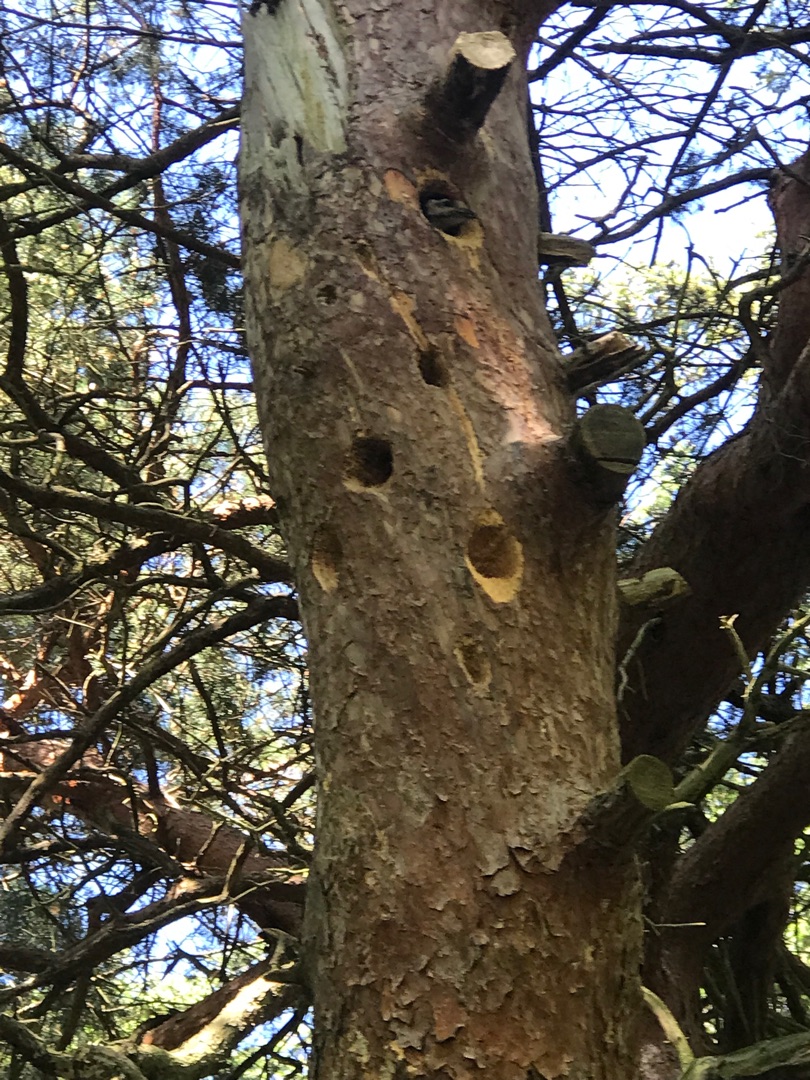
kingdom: Animalia
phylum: Chordata
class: Aves
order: Piciformes
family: Picidae
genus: Dendrocopos
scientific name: Dendrocopos major
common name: Stor flagspætte
